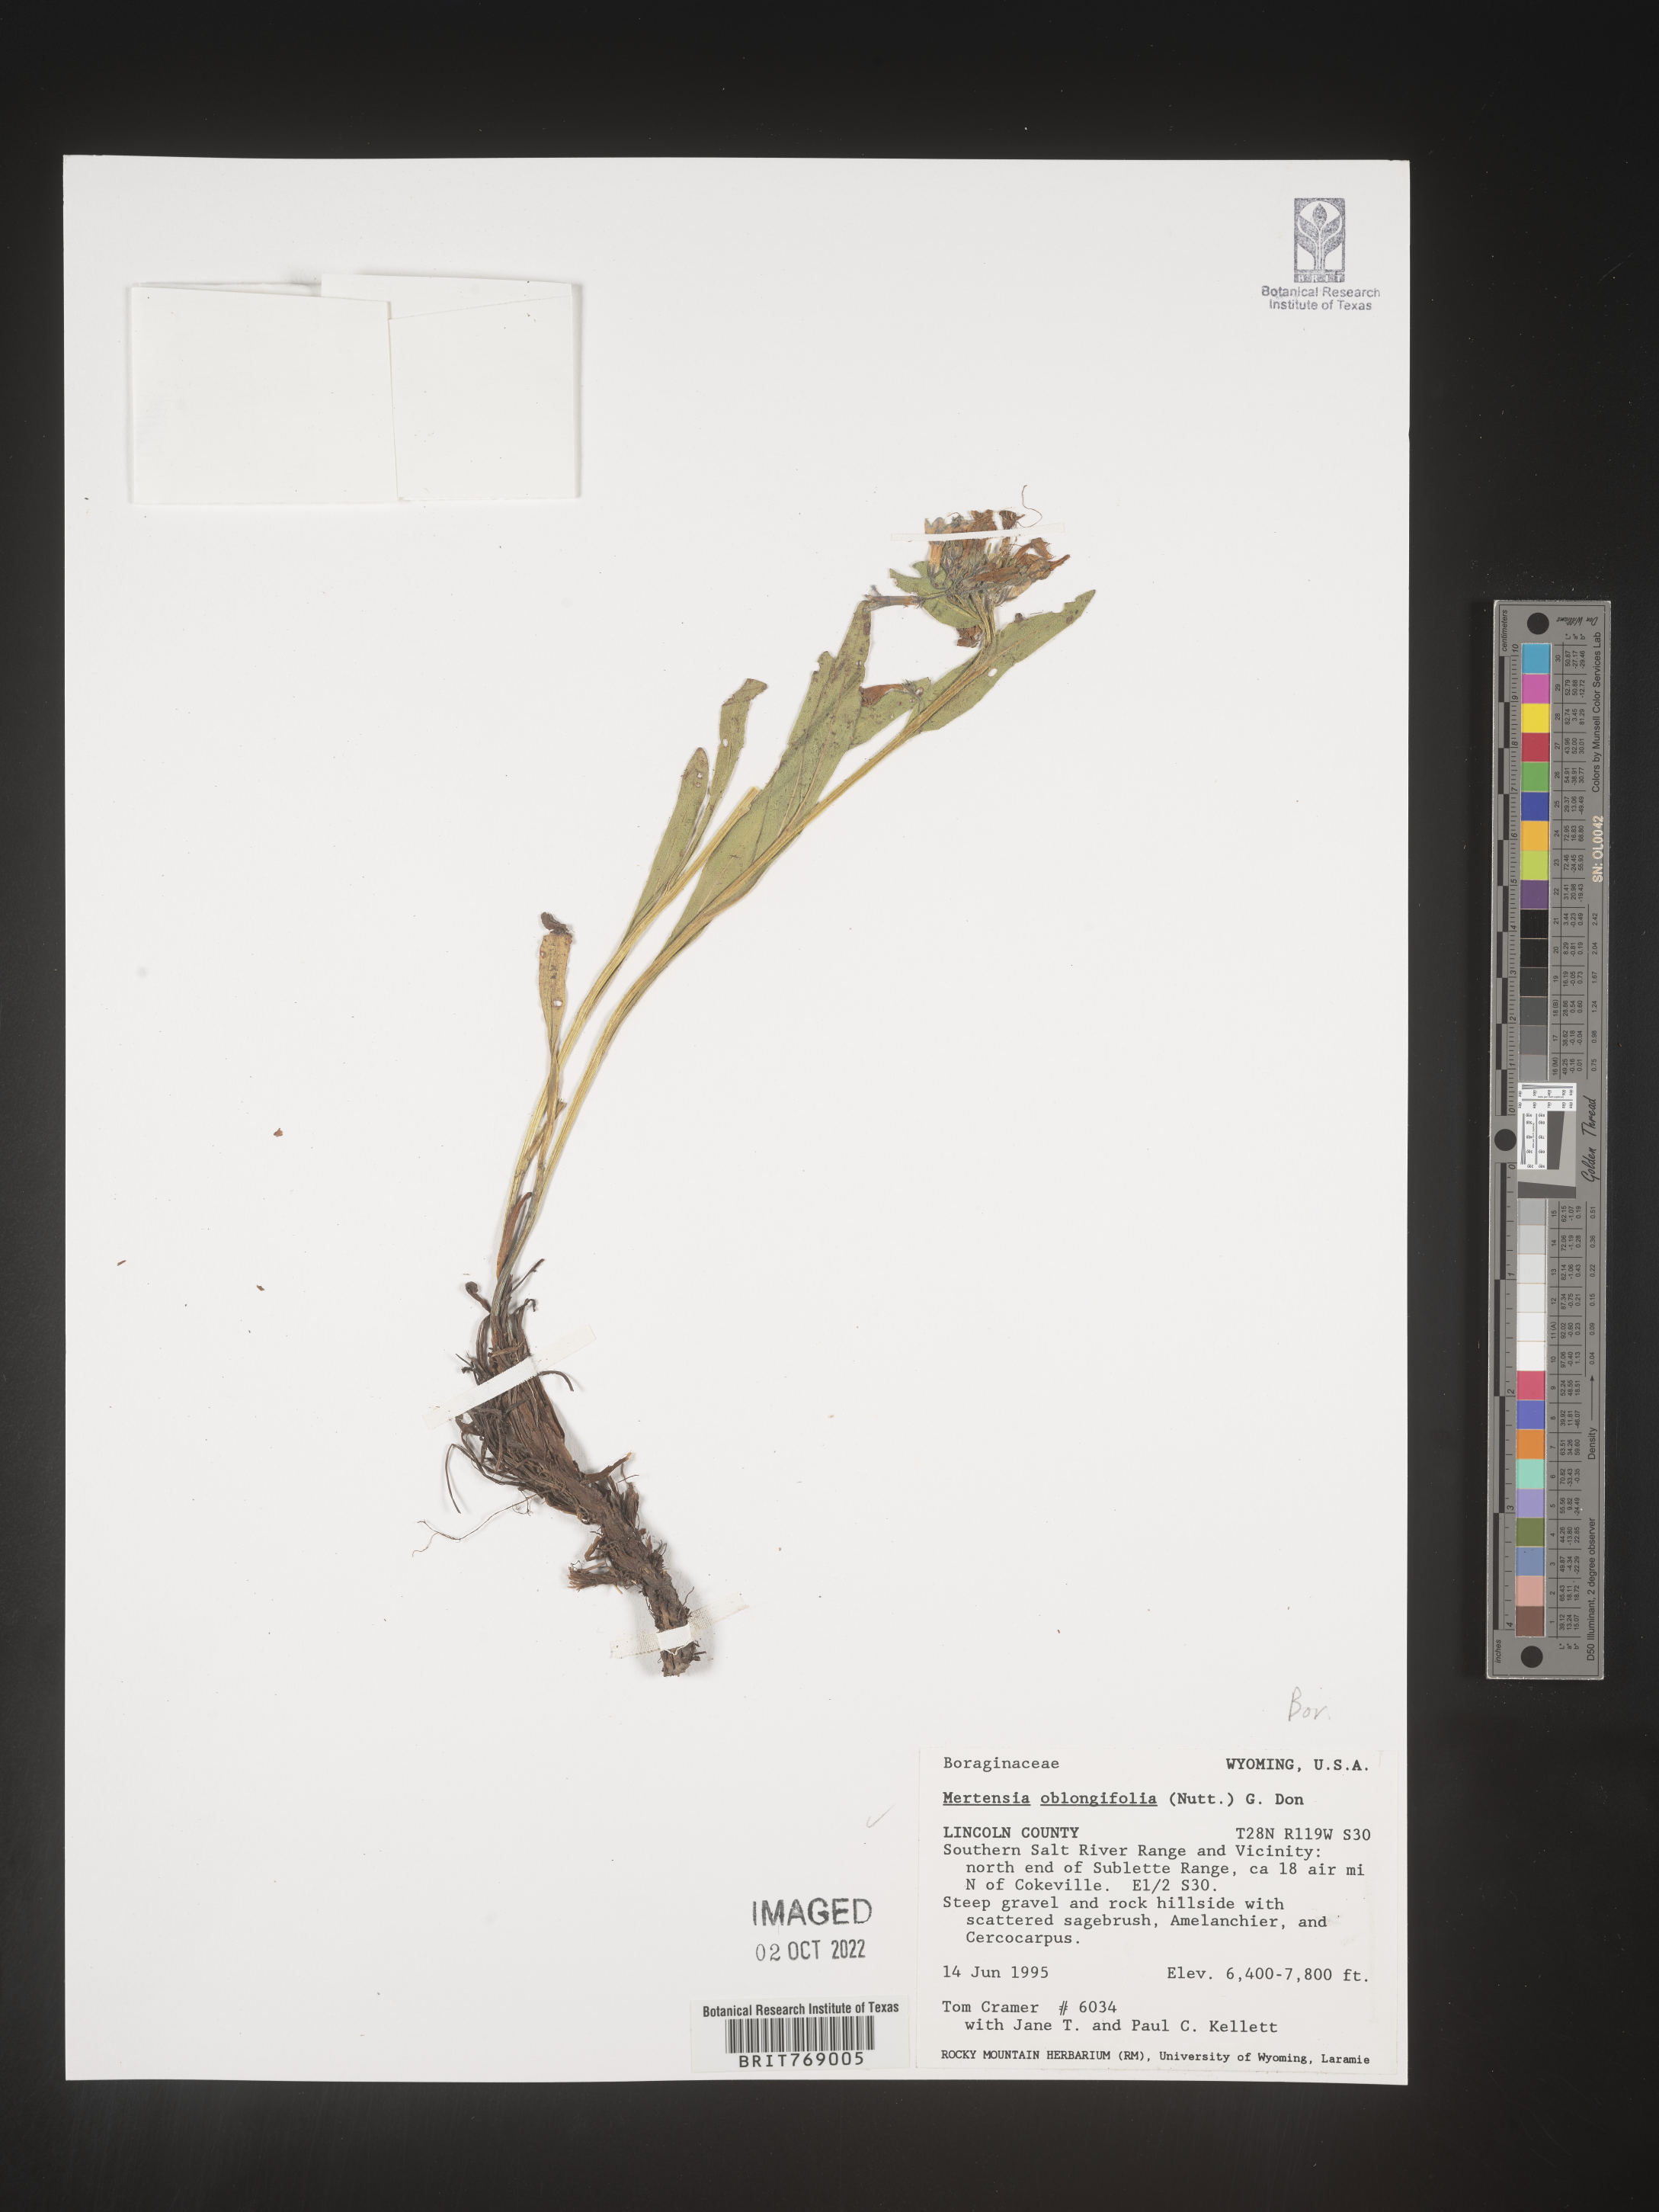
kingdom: Plantae
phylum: Tracheophyta
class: Magnoliopsida
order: Boraginales
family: Boraginaceae
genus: Mertensia
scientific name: Mertensia
